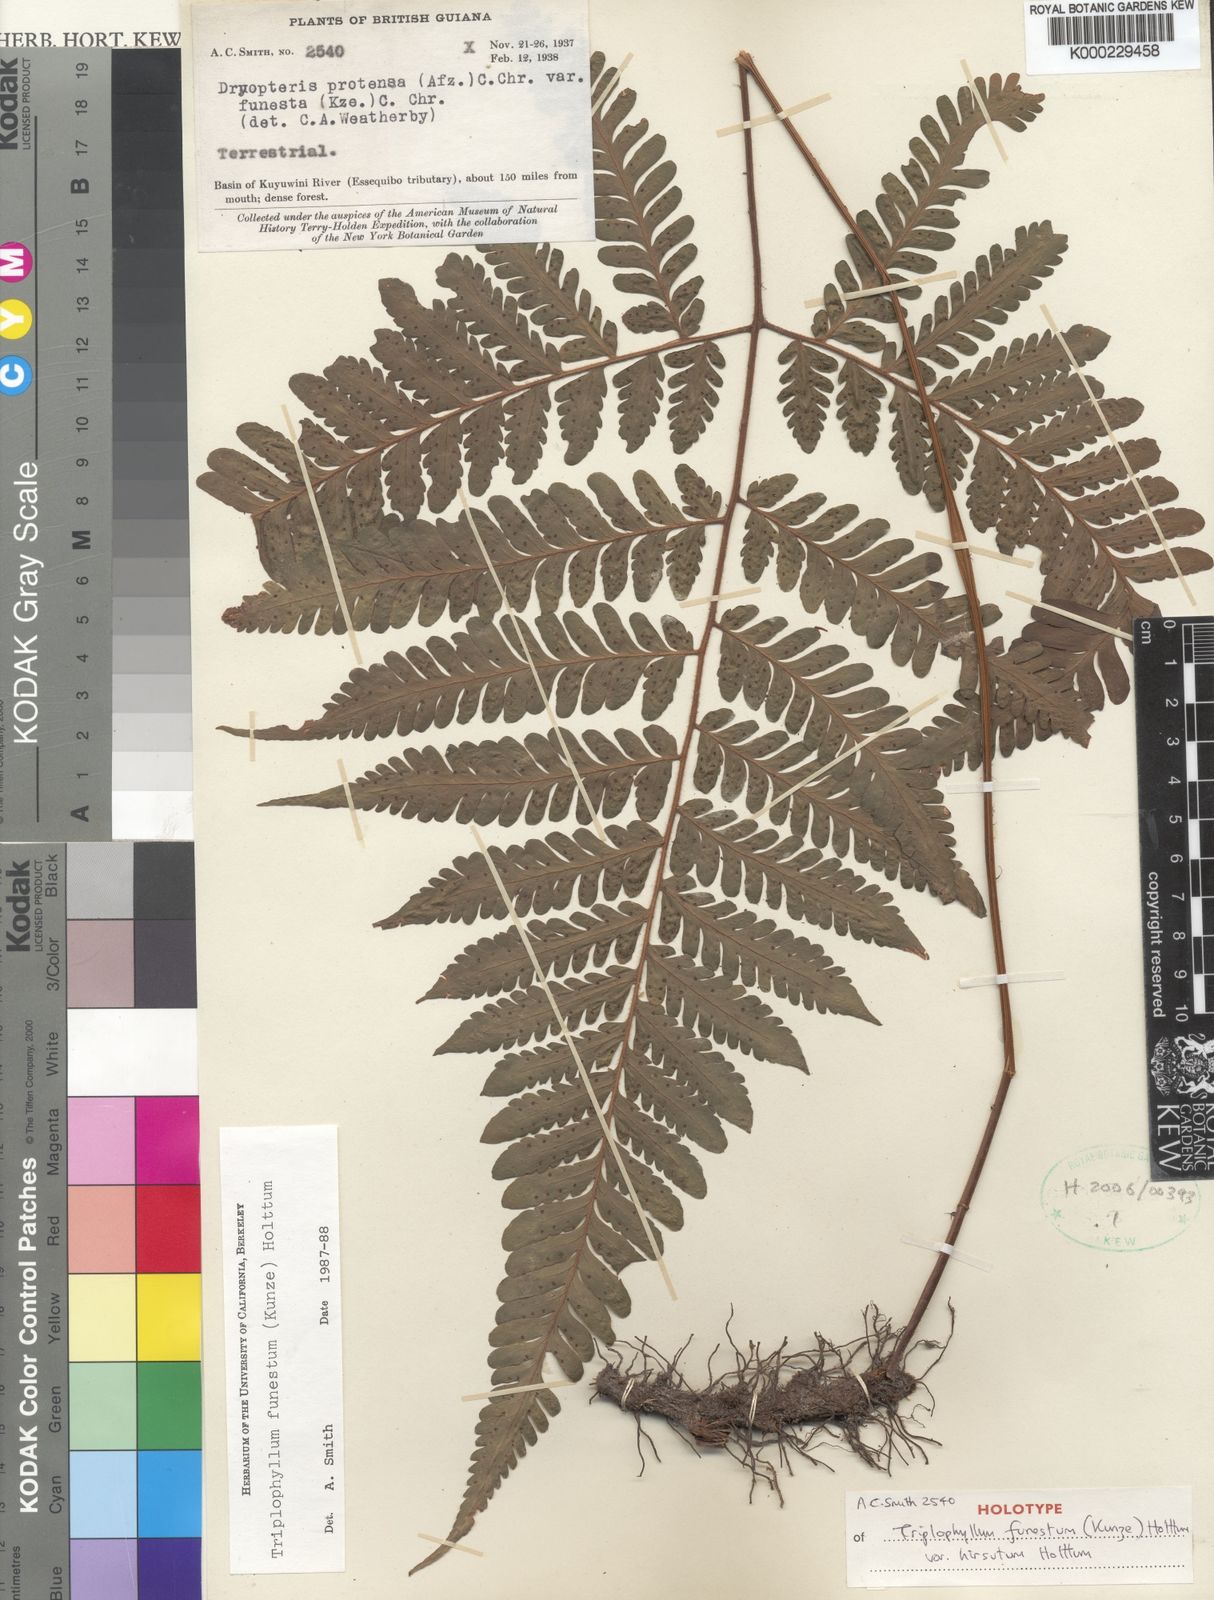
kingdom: Plantae
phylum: Tracheophyta
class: Polypodiopsida
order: Polypodiales
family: Tectariaceae
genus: Triplophyllum
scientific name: Triplophyllum hirsutum
